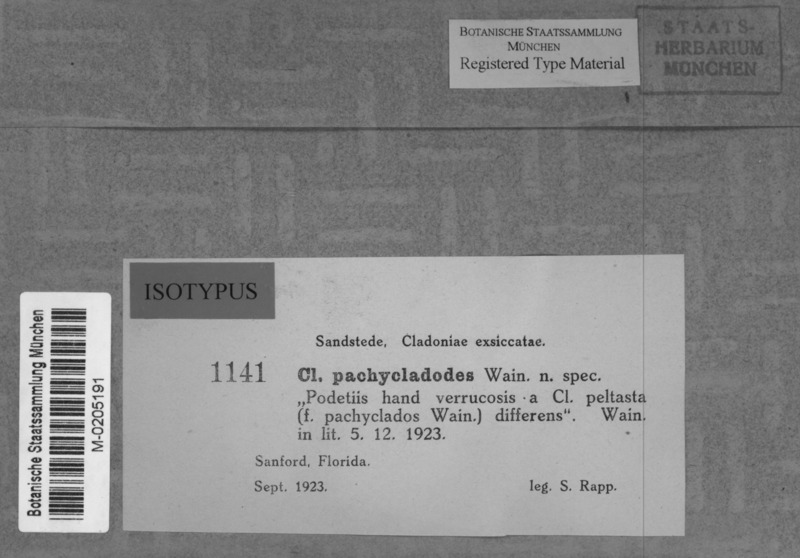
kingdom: Fungi
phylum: Ascomycota
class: Lecanoromycetes
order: Lecanorales
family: Cladoniaceae
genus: Cladonia
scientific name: Cladonia pachycladodes
